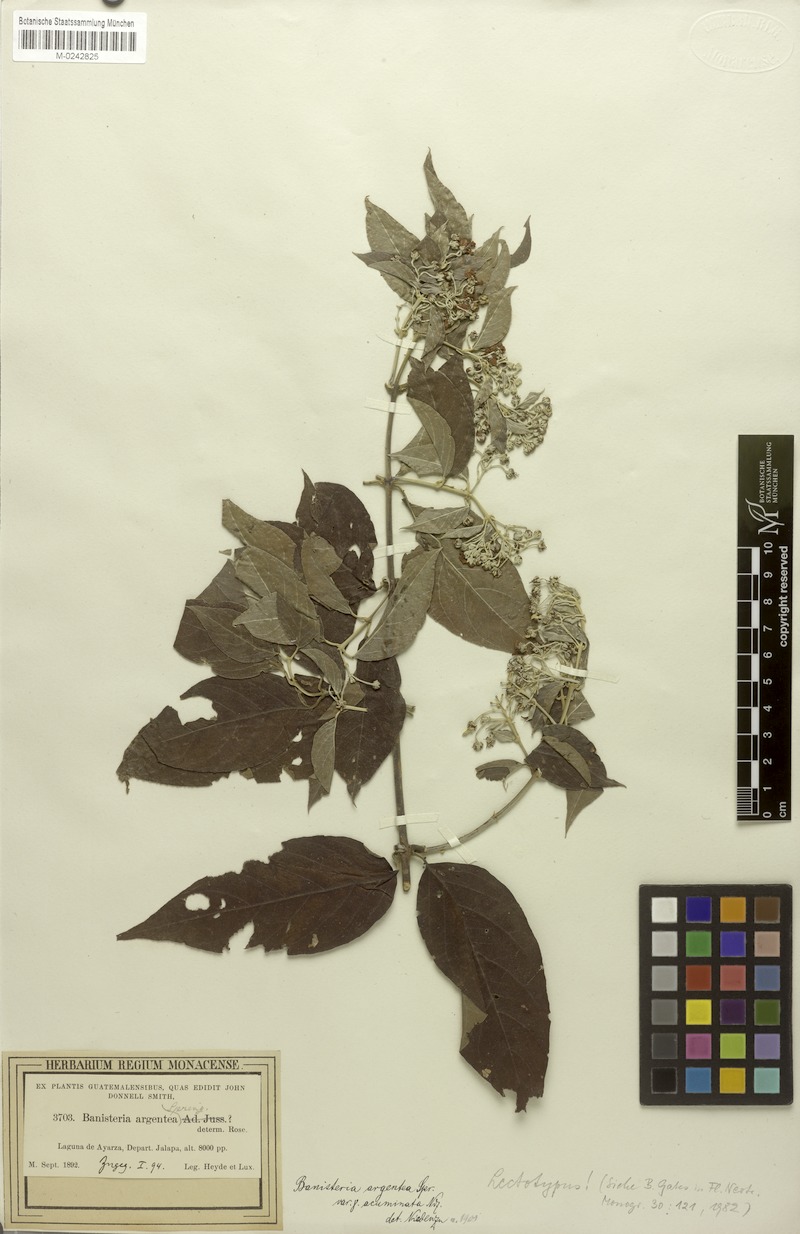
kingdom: Plantae
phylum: Tracheophyta
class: Magnoliopsida
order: Malpighiales
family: Malpighiaceae
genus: Banisteriopsis
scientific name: Banisteriopsis muricata
